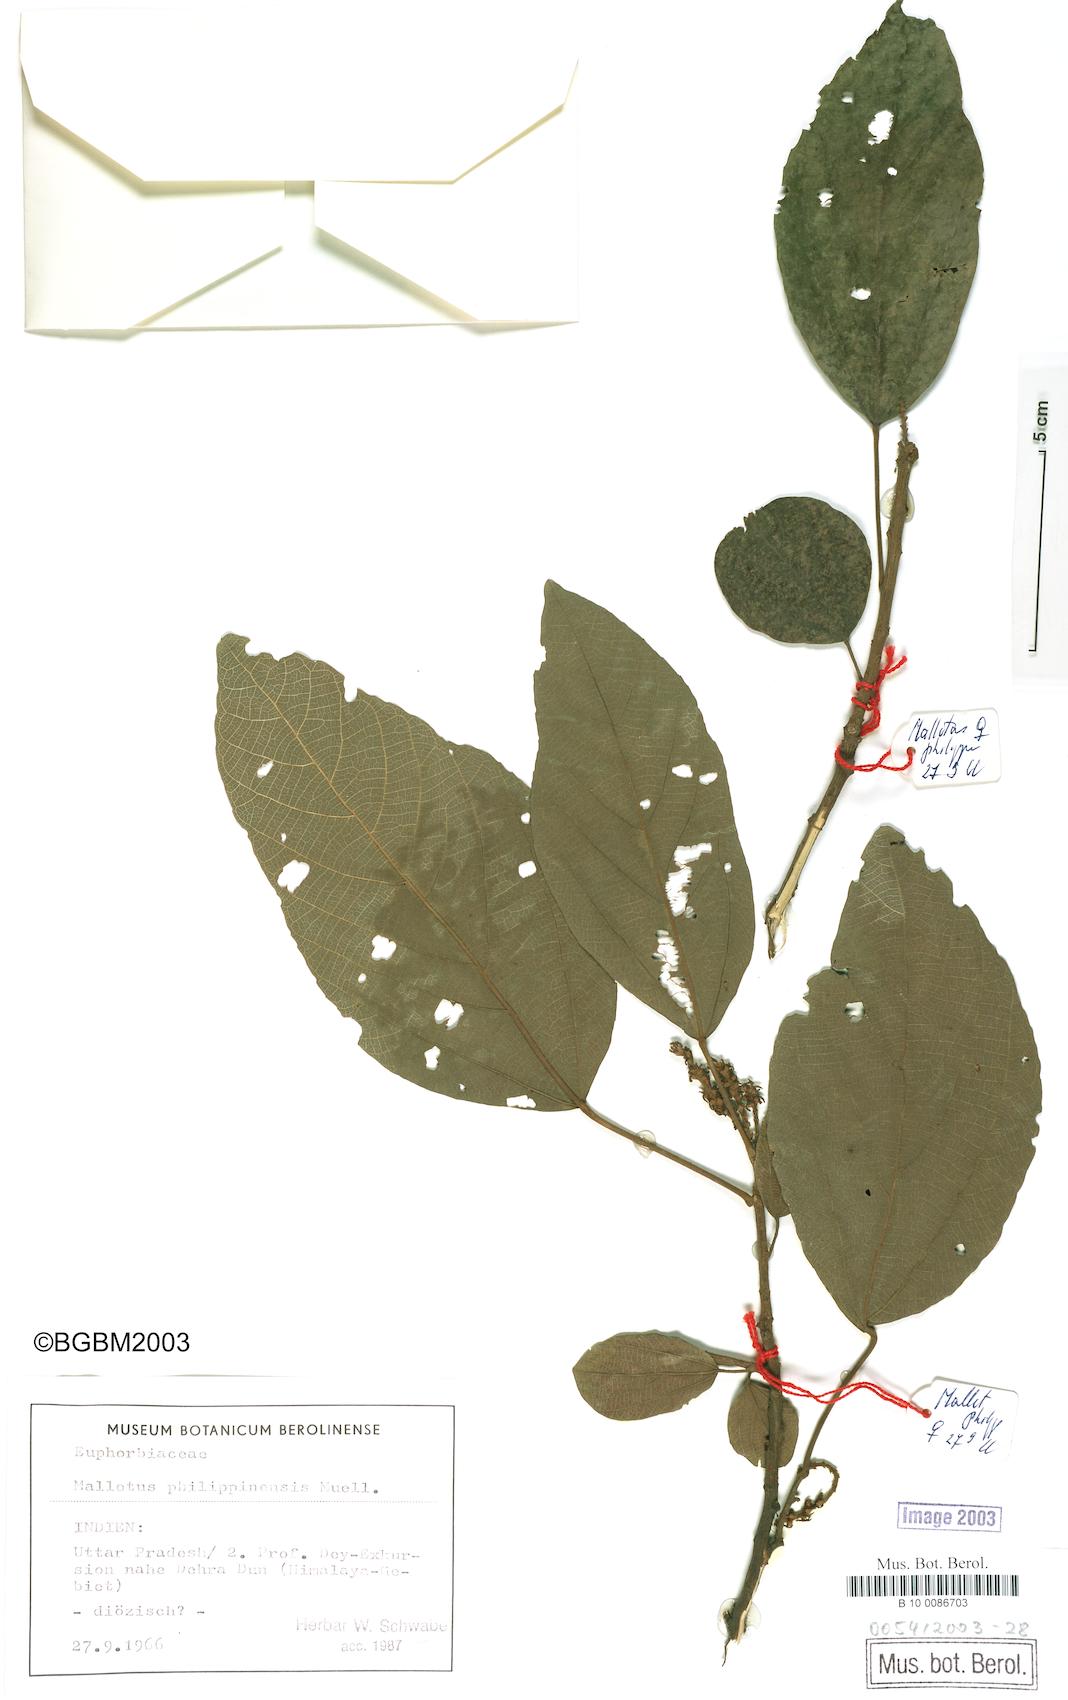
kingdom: Plantae
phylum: Tracheophyta
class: Magnoliopsida
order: Malpighiales
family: Euphorbiaceae
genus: Mallotus
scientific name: Mallotus philippensis
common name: Kamala tree
